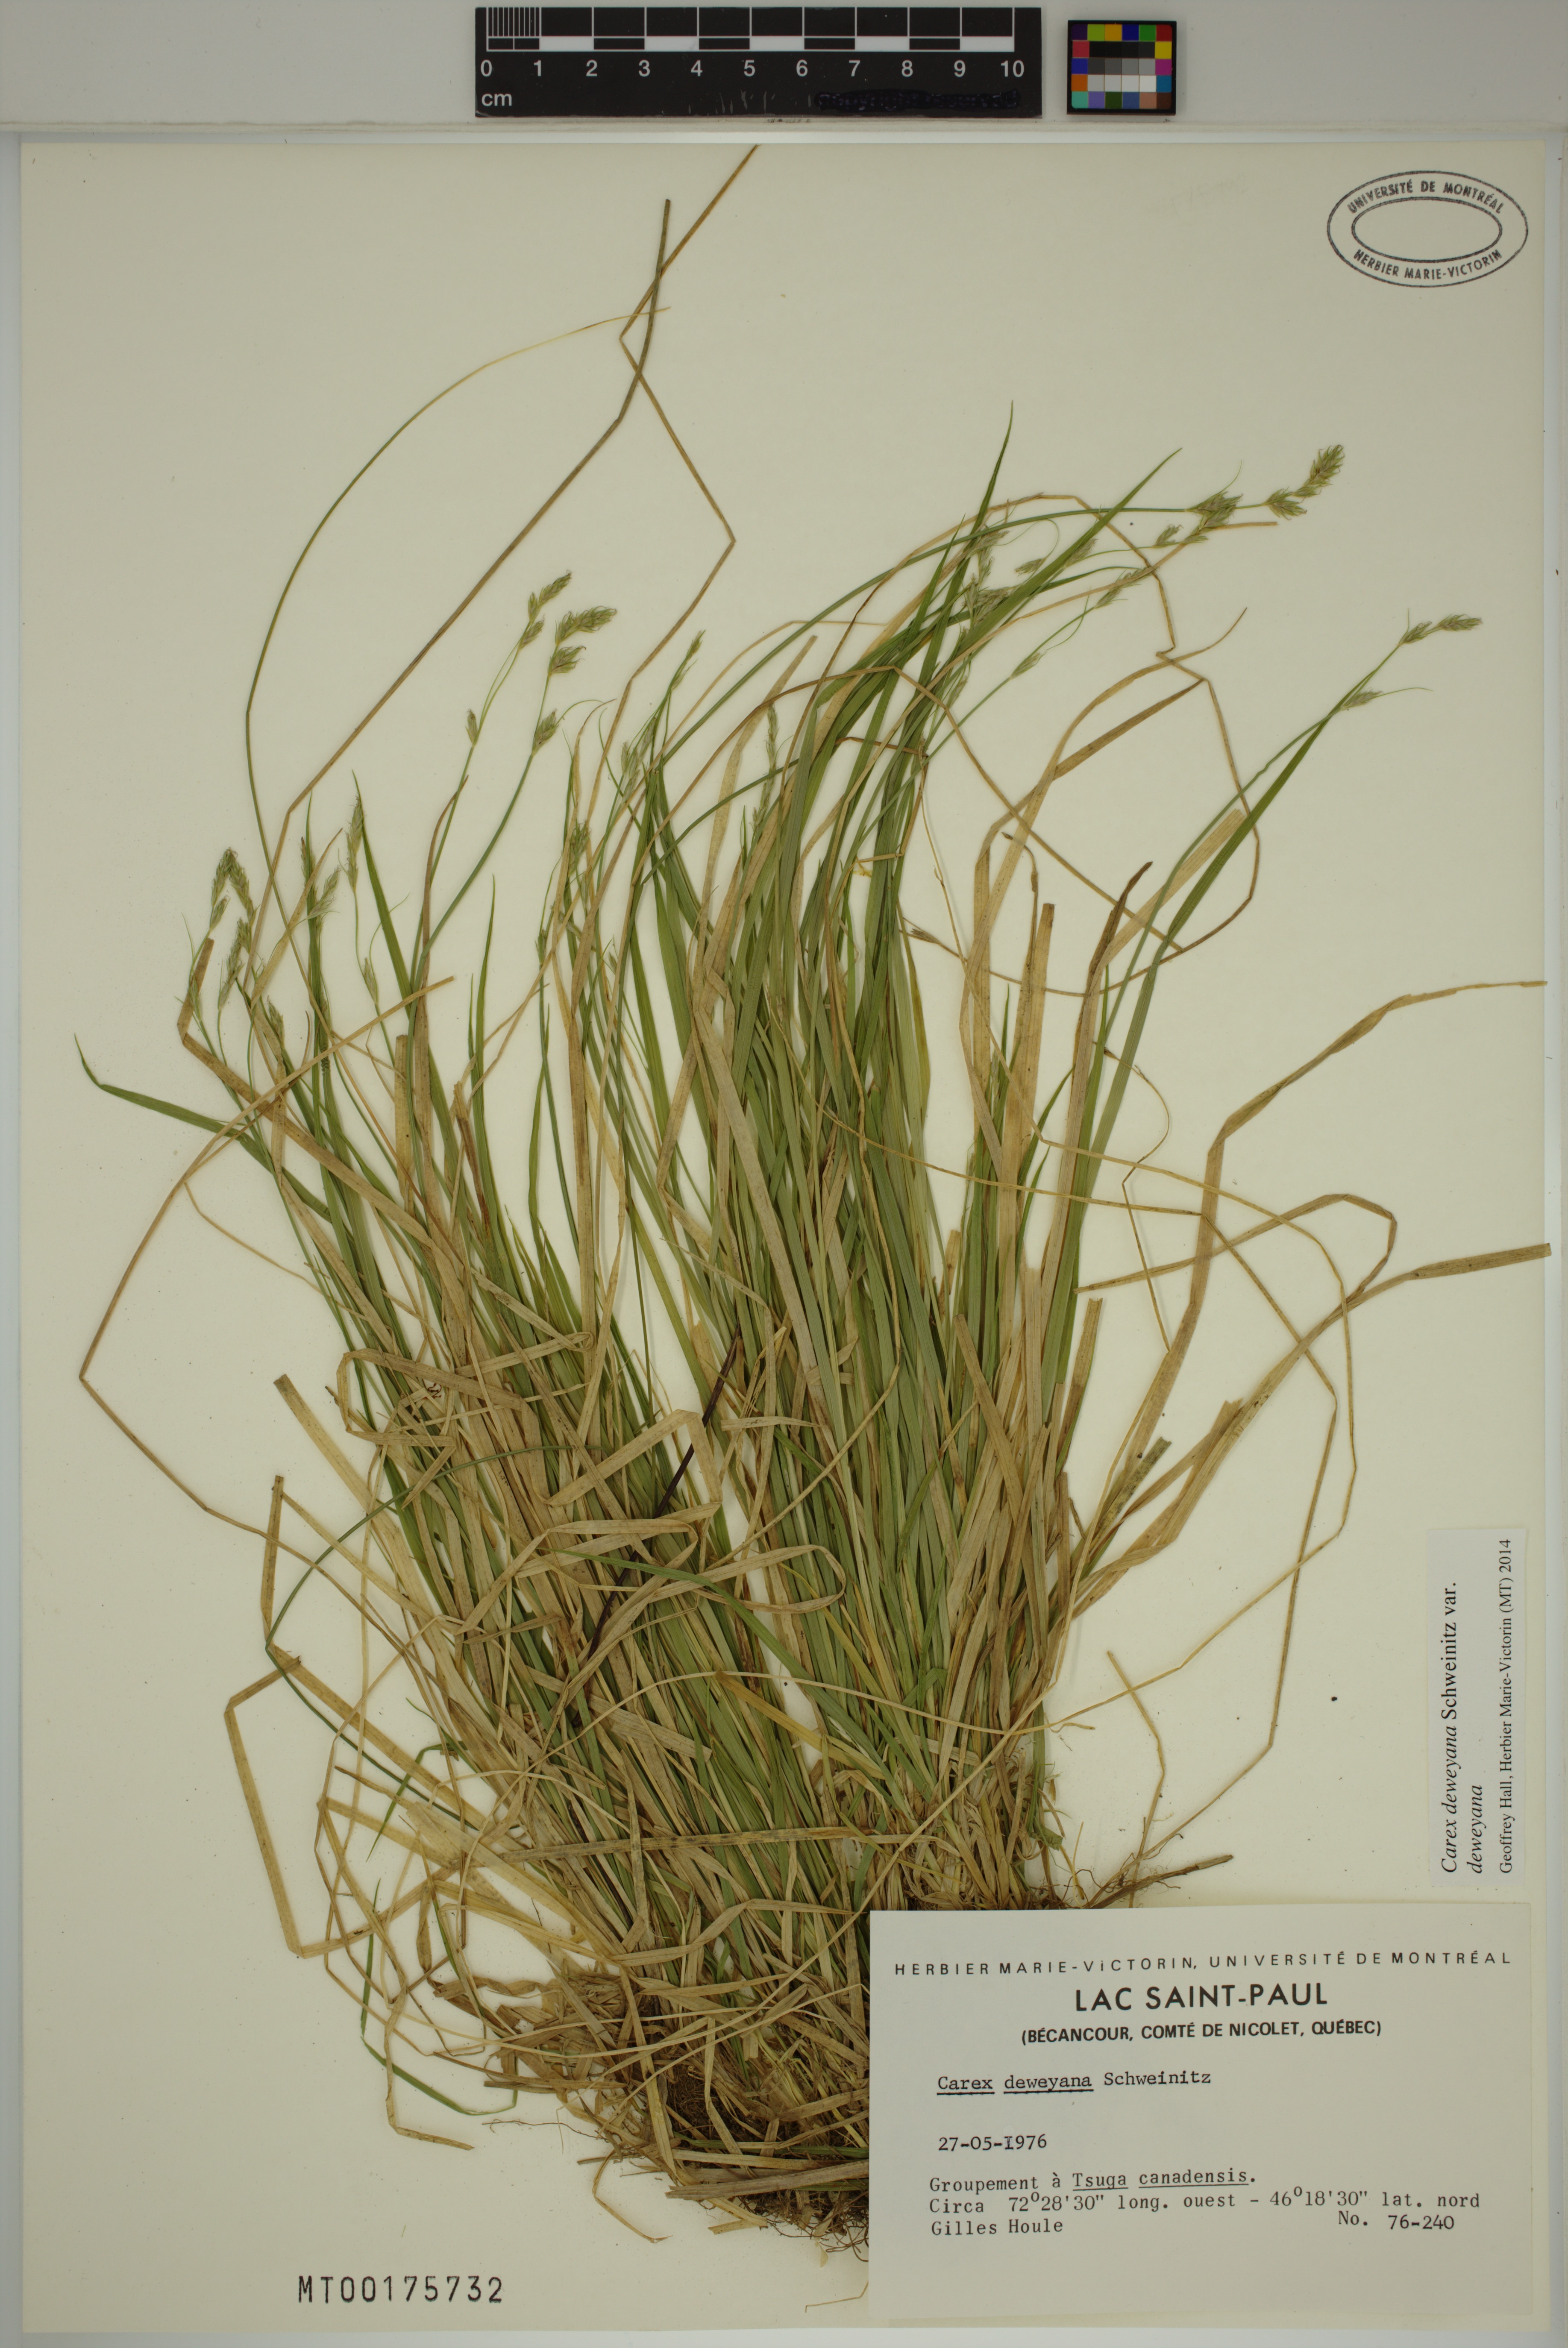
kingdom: Plantae
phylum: Tracheophyta
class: Liliopsida
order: Poales
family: Cyperaceae
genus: Carex
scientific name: Carex deweyana
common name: Dewey's sedge
